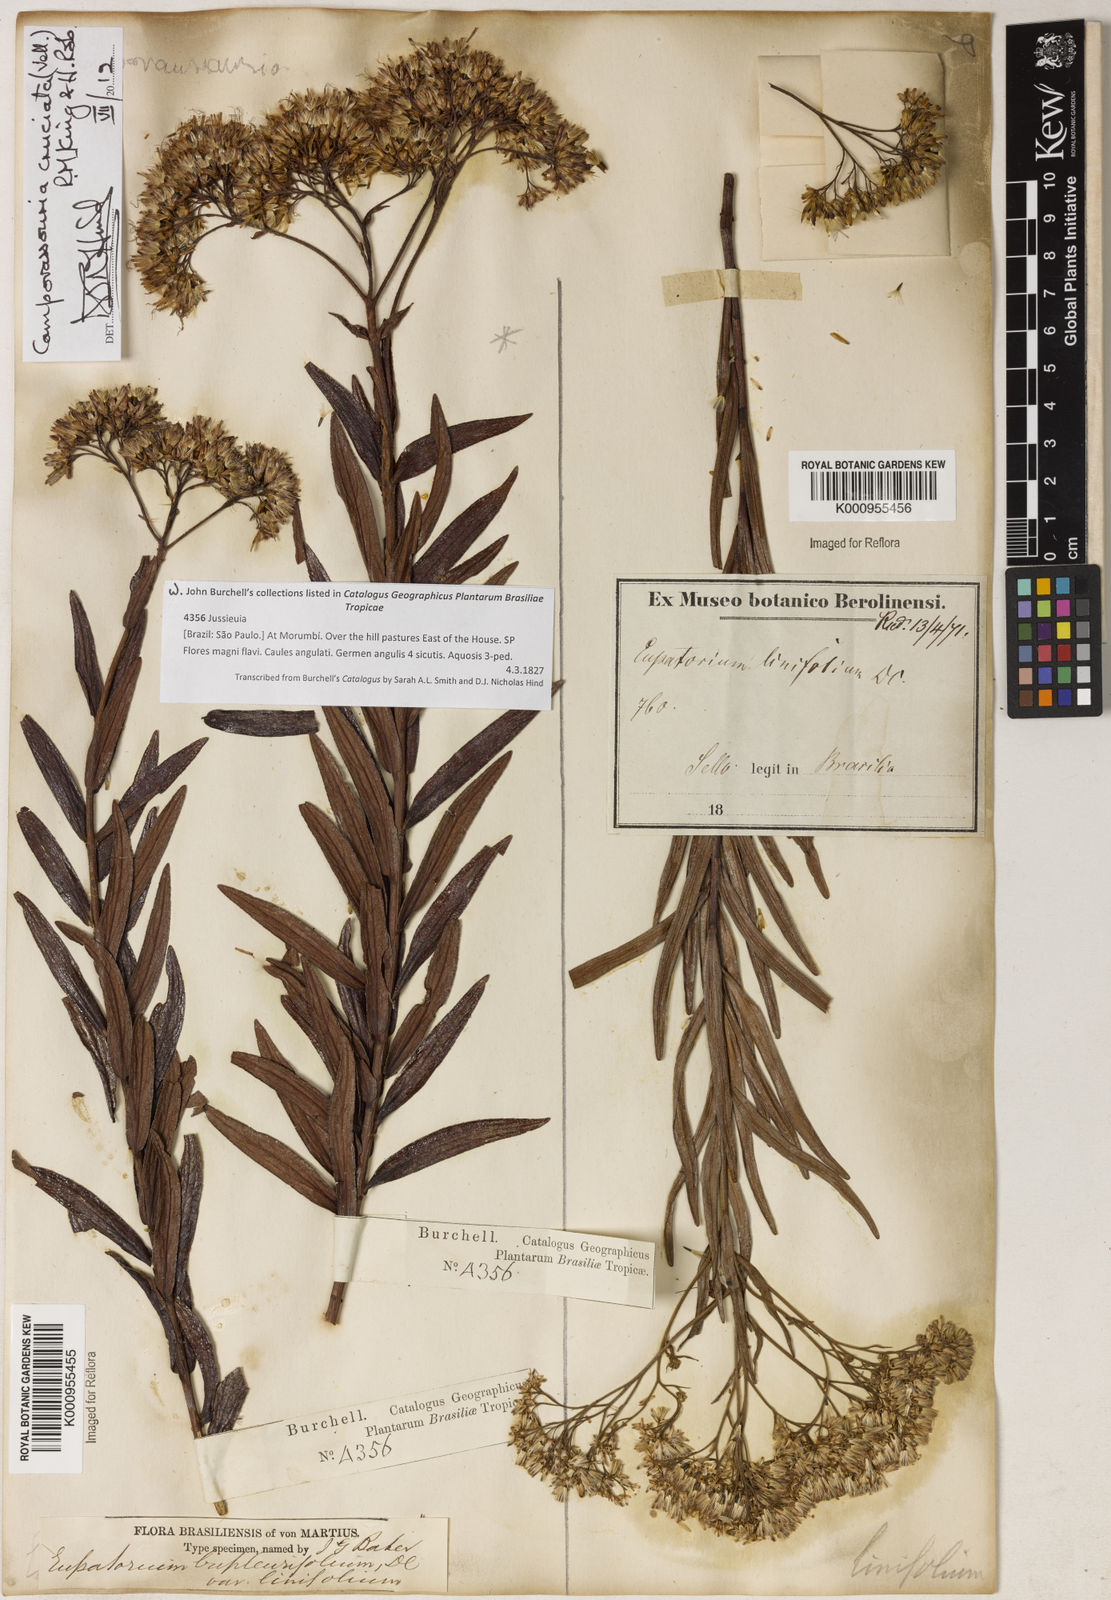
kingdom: Plantae
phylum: Tracheophyta
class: Magnoliopsida
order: Asterales
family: Asteraceae
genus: Campovassouria
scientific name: Campovassouria cruciata
